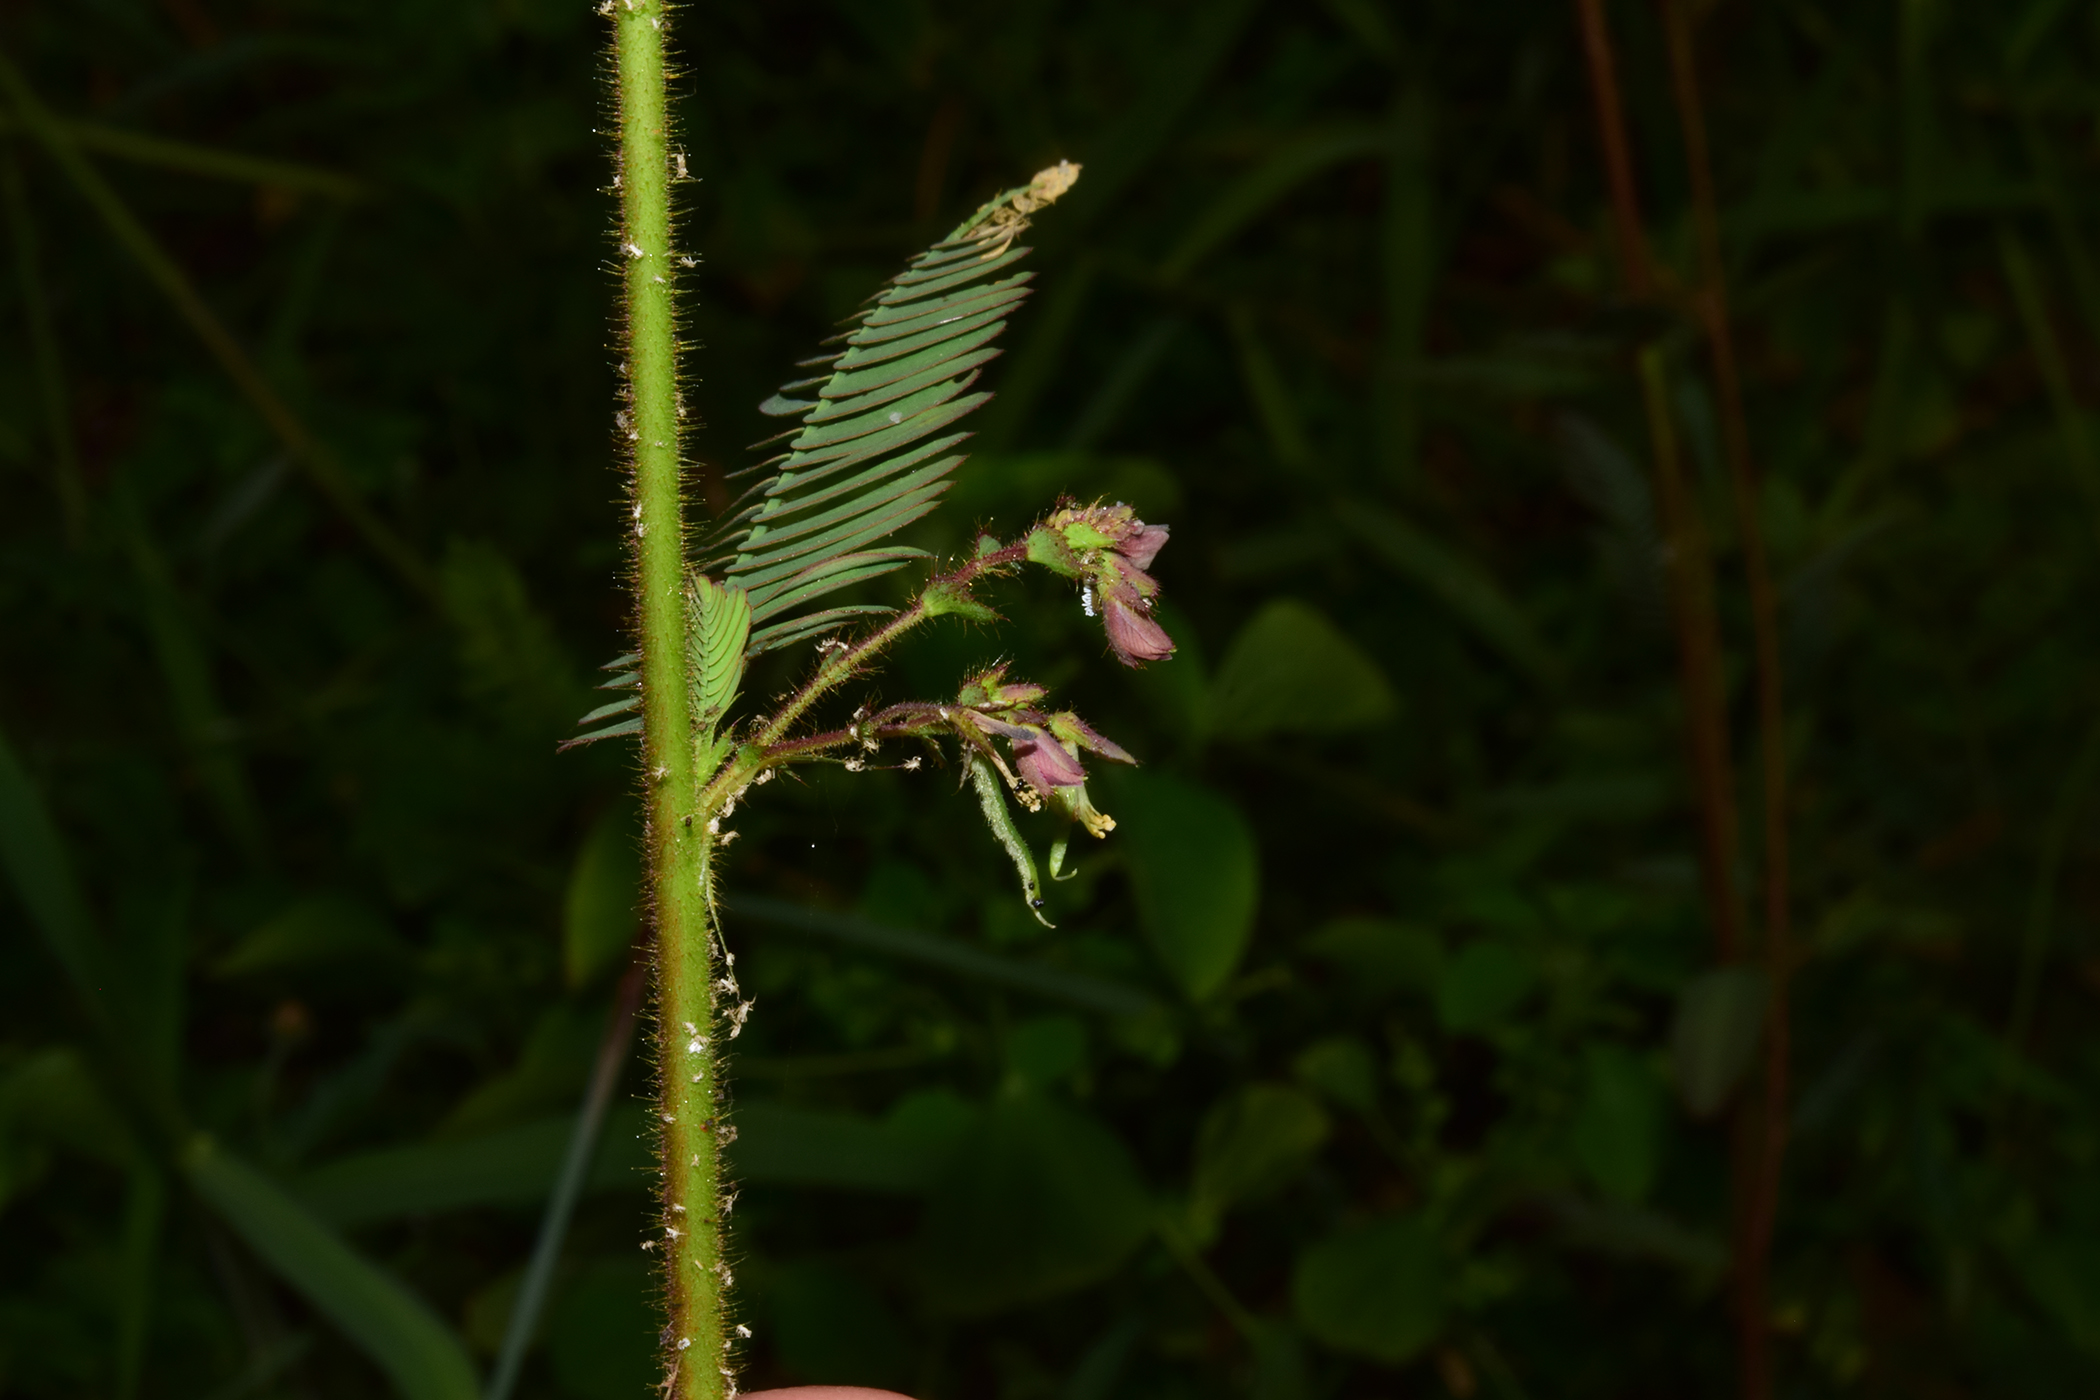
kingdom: Plantae
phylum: Tracheophyta
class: Magnoliopsida
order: Fabales
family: Fabaceae
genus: Aeschynomene
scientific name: Aeschynomene americana
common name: Joint-vetch
